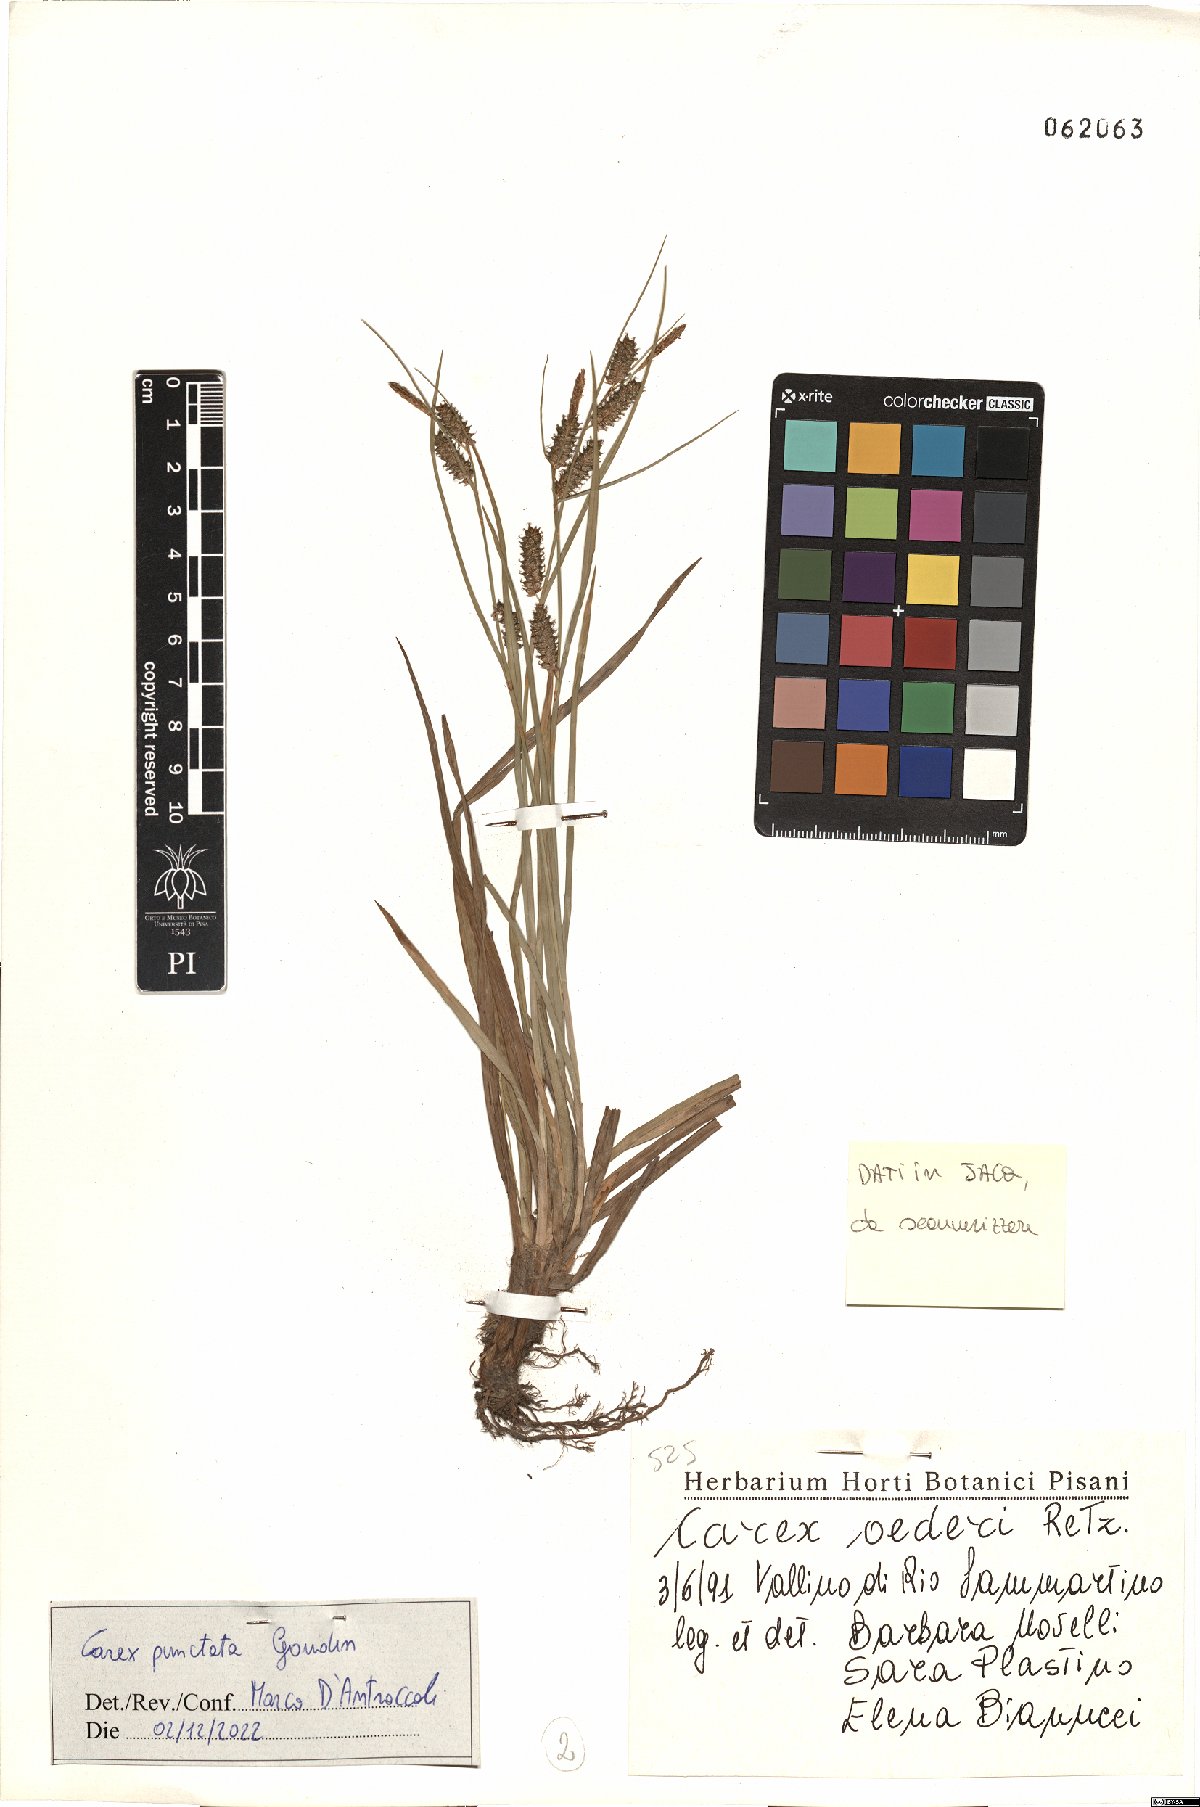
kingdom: Plantae
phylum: Tracheophyta
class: Liliopsida
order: Poales
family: Cyperaceae
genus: Carex
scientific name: Carex punctata
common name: Dotted sedge
